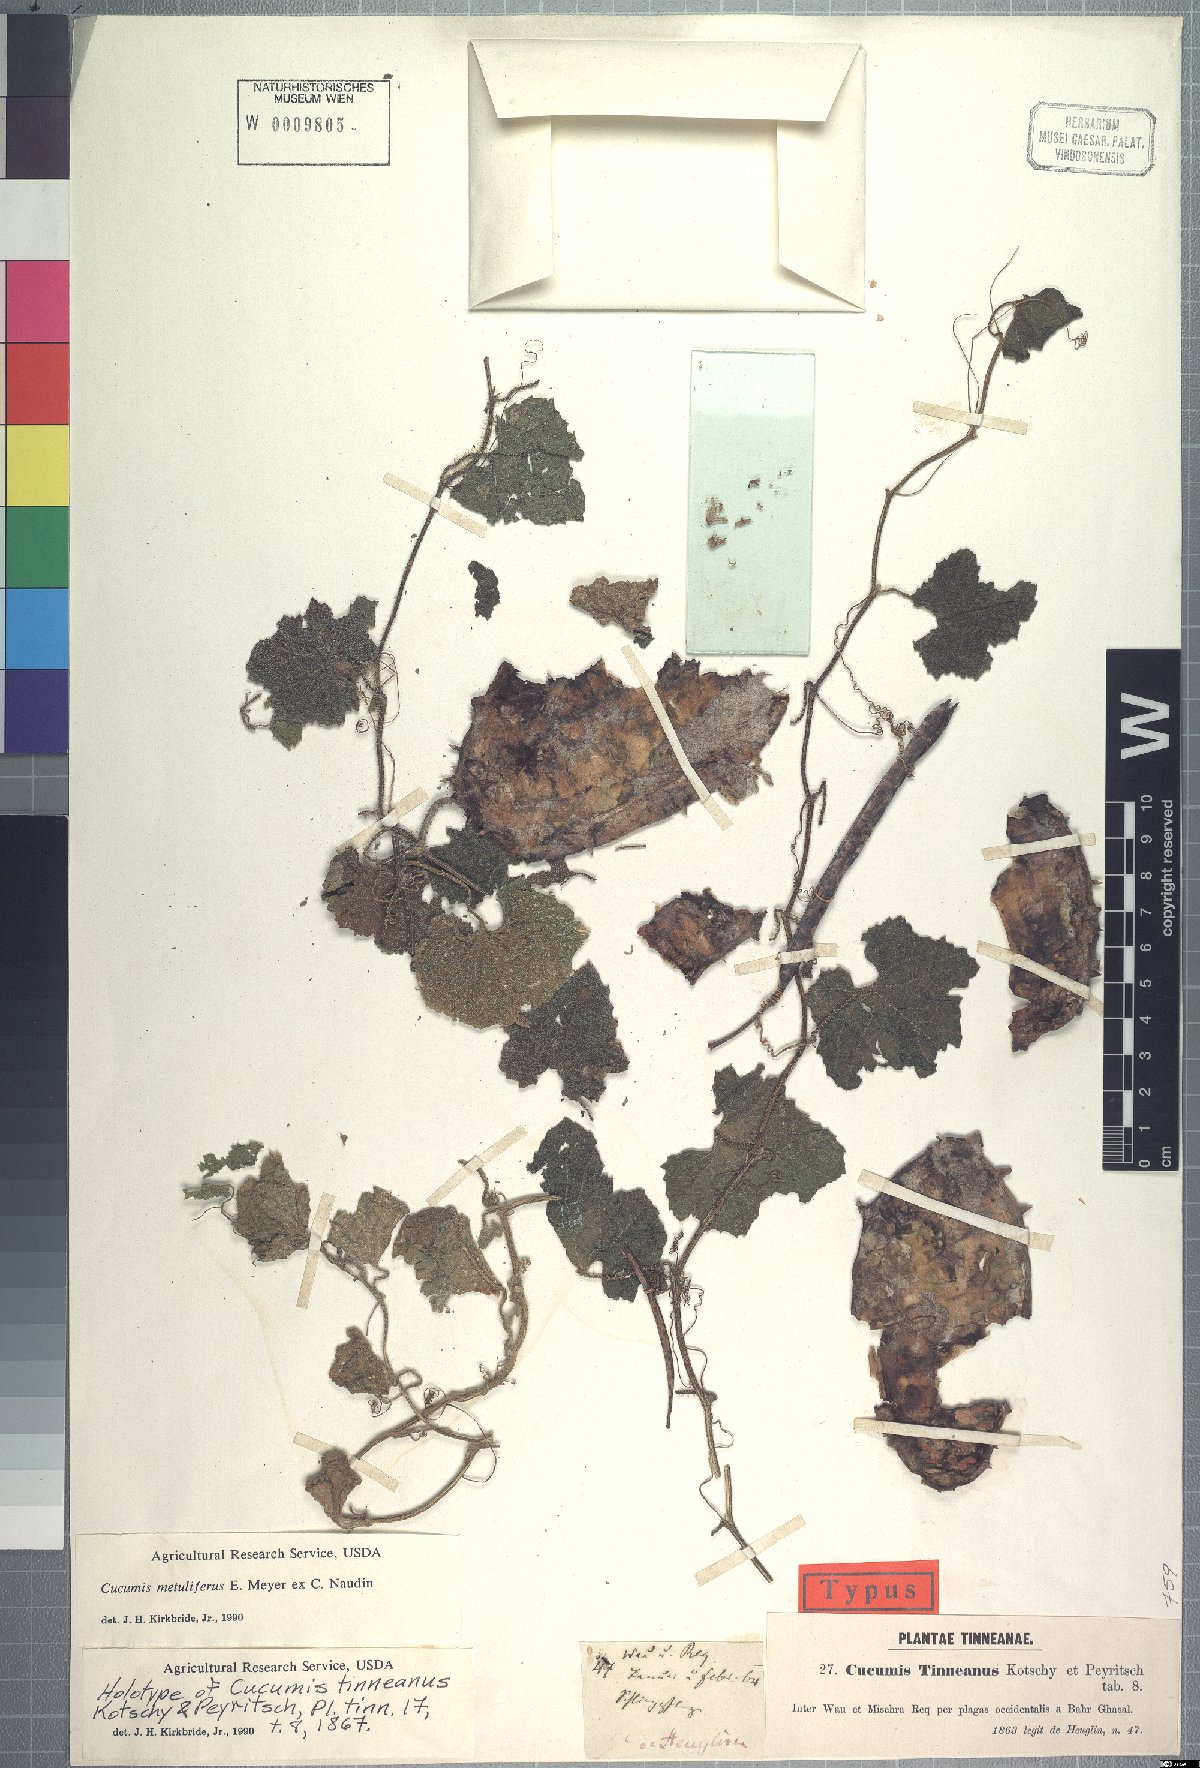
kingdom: Plantae
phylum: Tracheophyta
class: Magnoliopsida
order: Cucurbitales
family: Cucurbitaceae
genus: Cucumis
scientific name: Cucumis metuliferus
